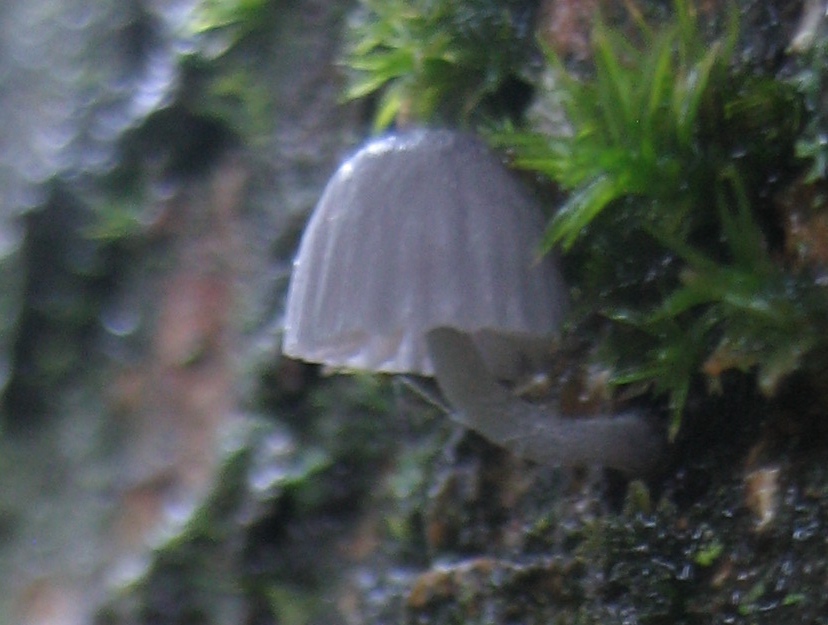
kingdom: Fungi
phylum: Basidiomycota
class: Agaricomycetes
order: Agaricales
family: Mycenaceae
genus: Mycena
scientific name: Mycena pseudocorticola
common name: gråblå bark-huesvamp
